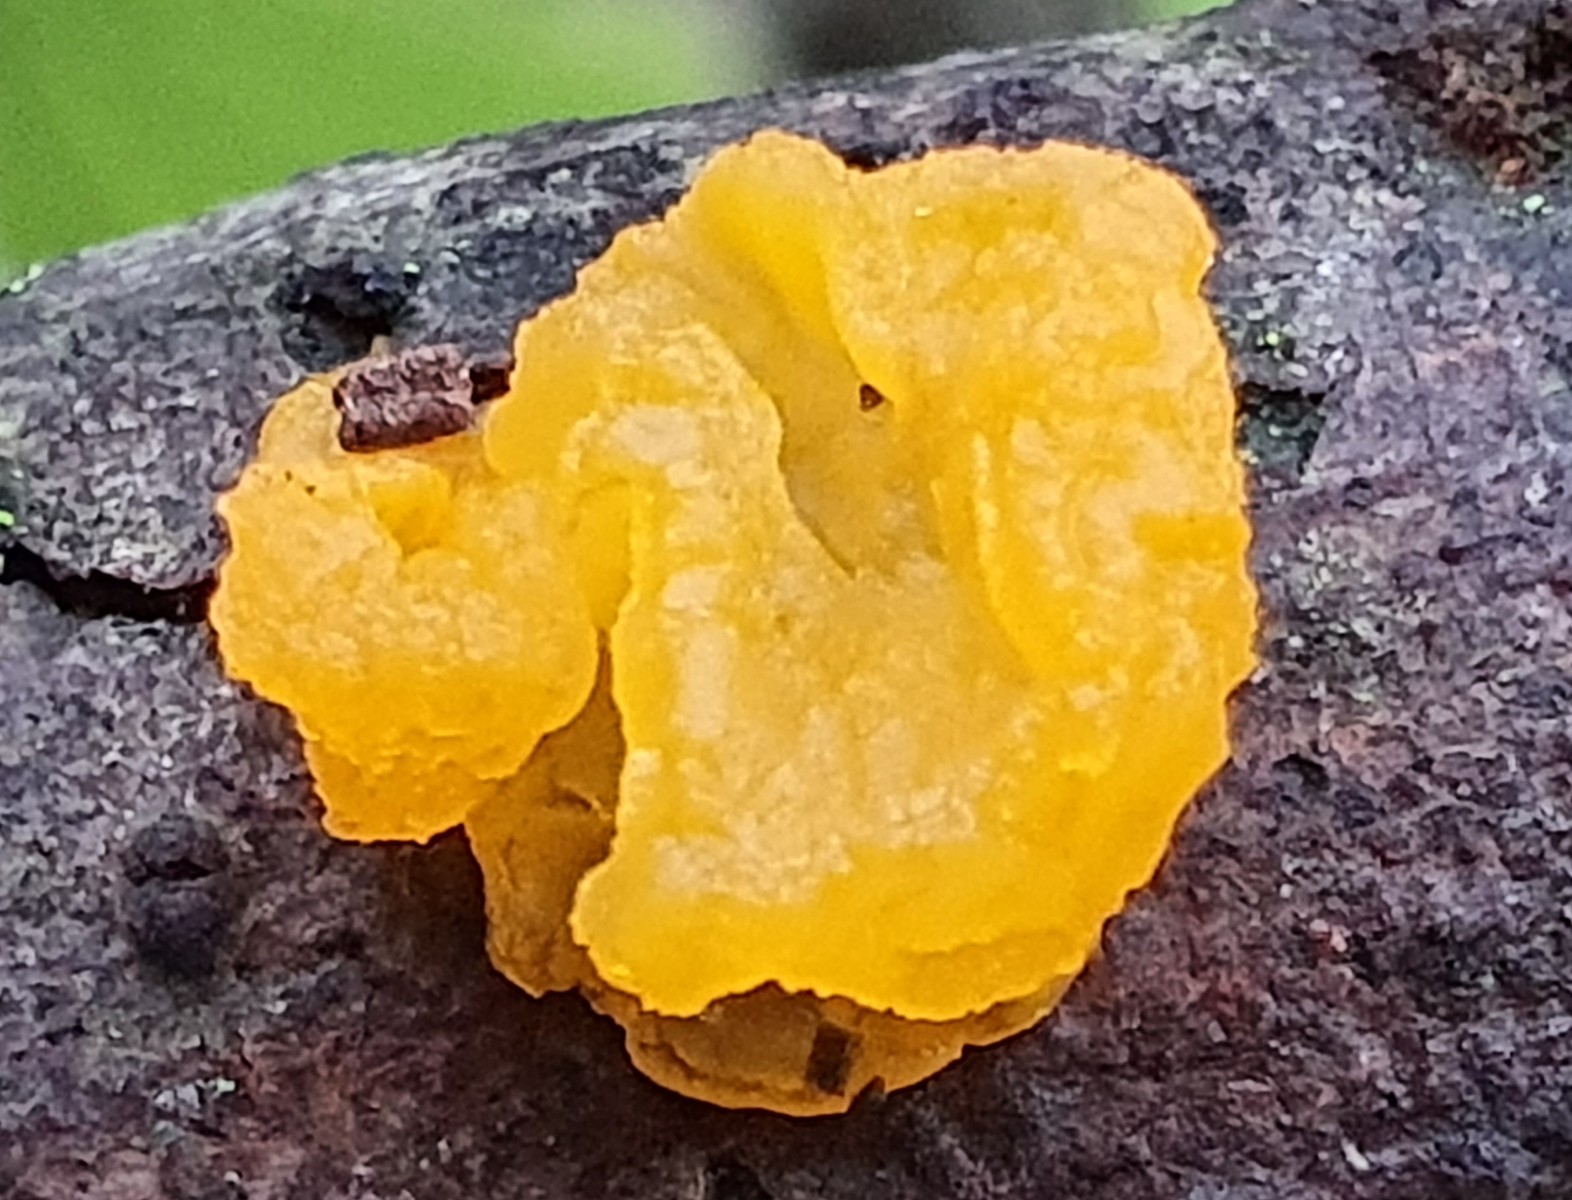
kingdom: Fungi
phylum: Basidiomycota
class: Tremellomycetes
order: Tremellales
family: Tremellaceae
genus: Tremella
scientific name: Tremella mesenterica
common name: gul bævresvamp
